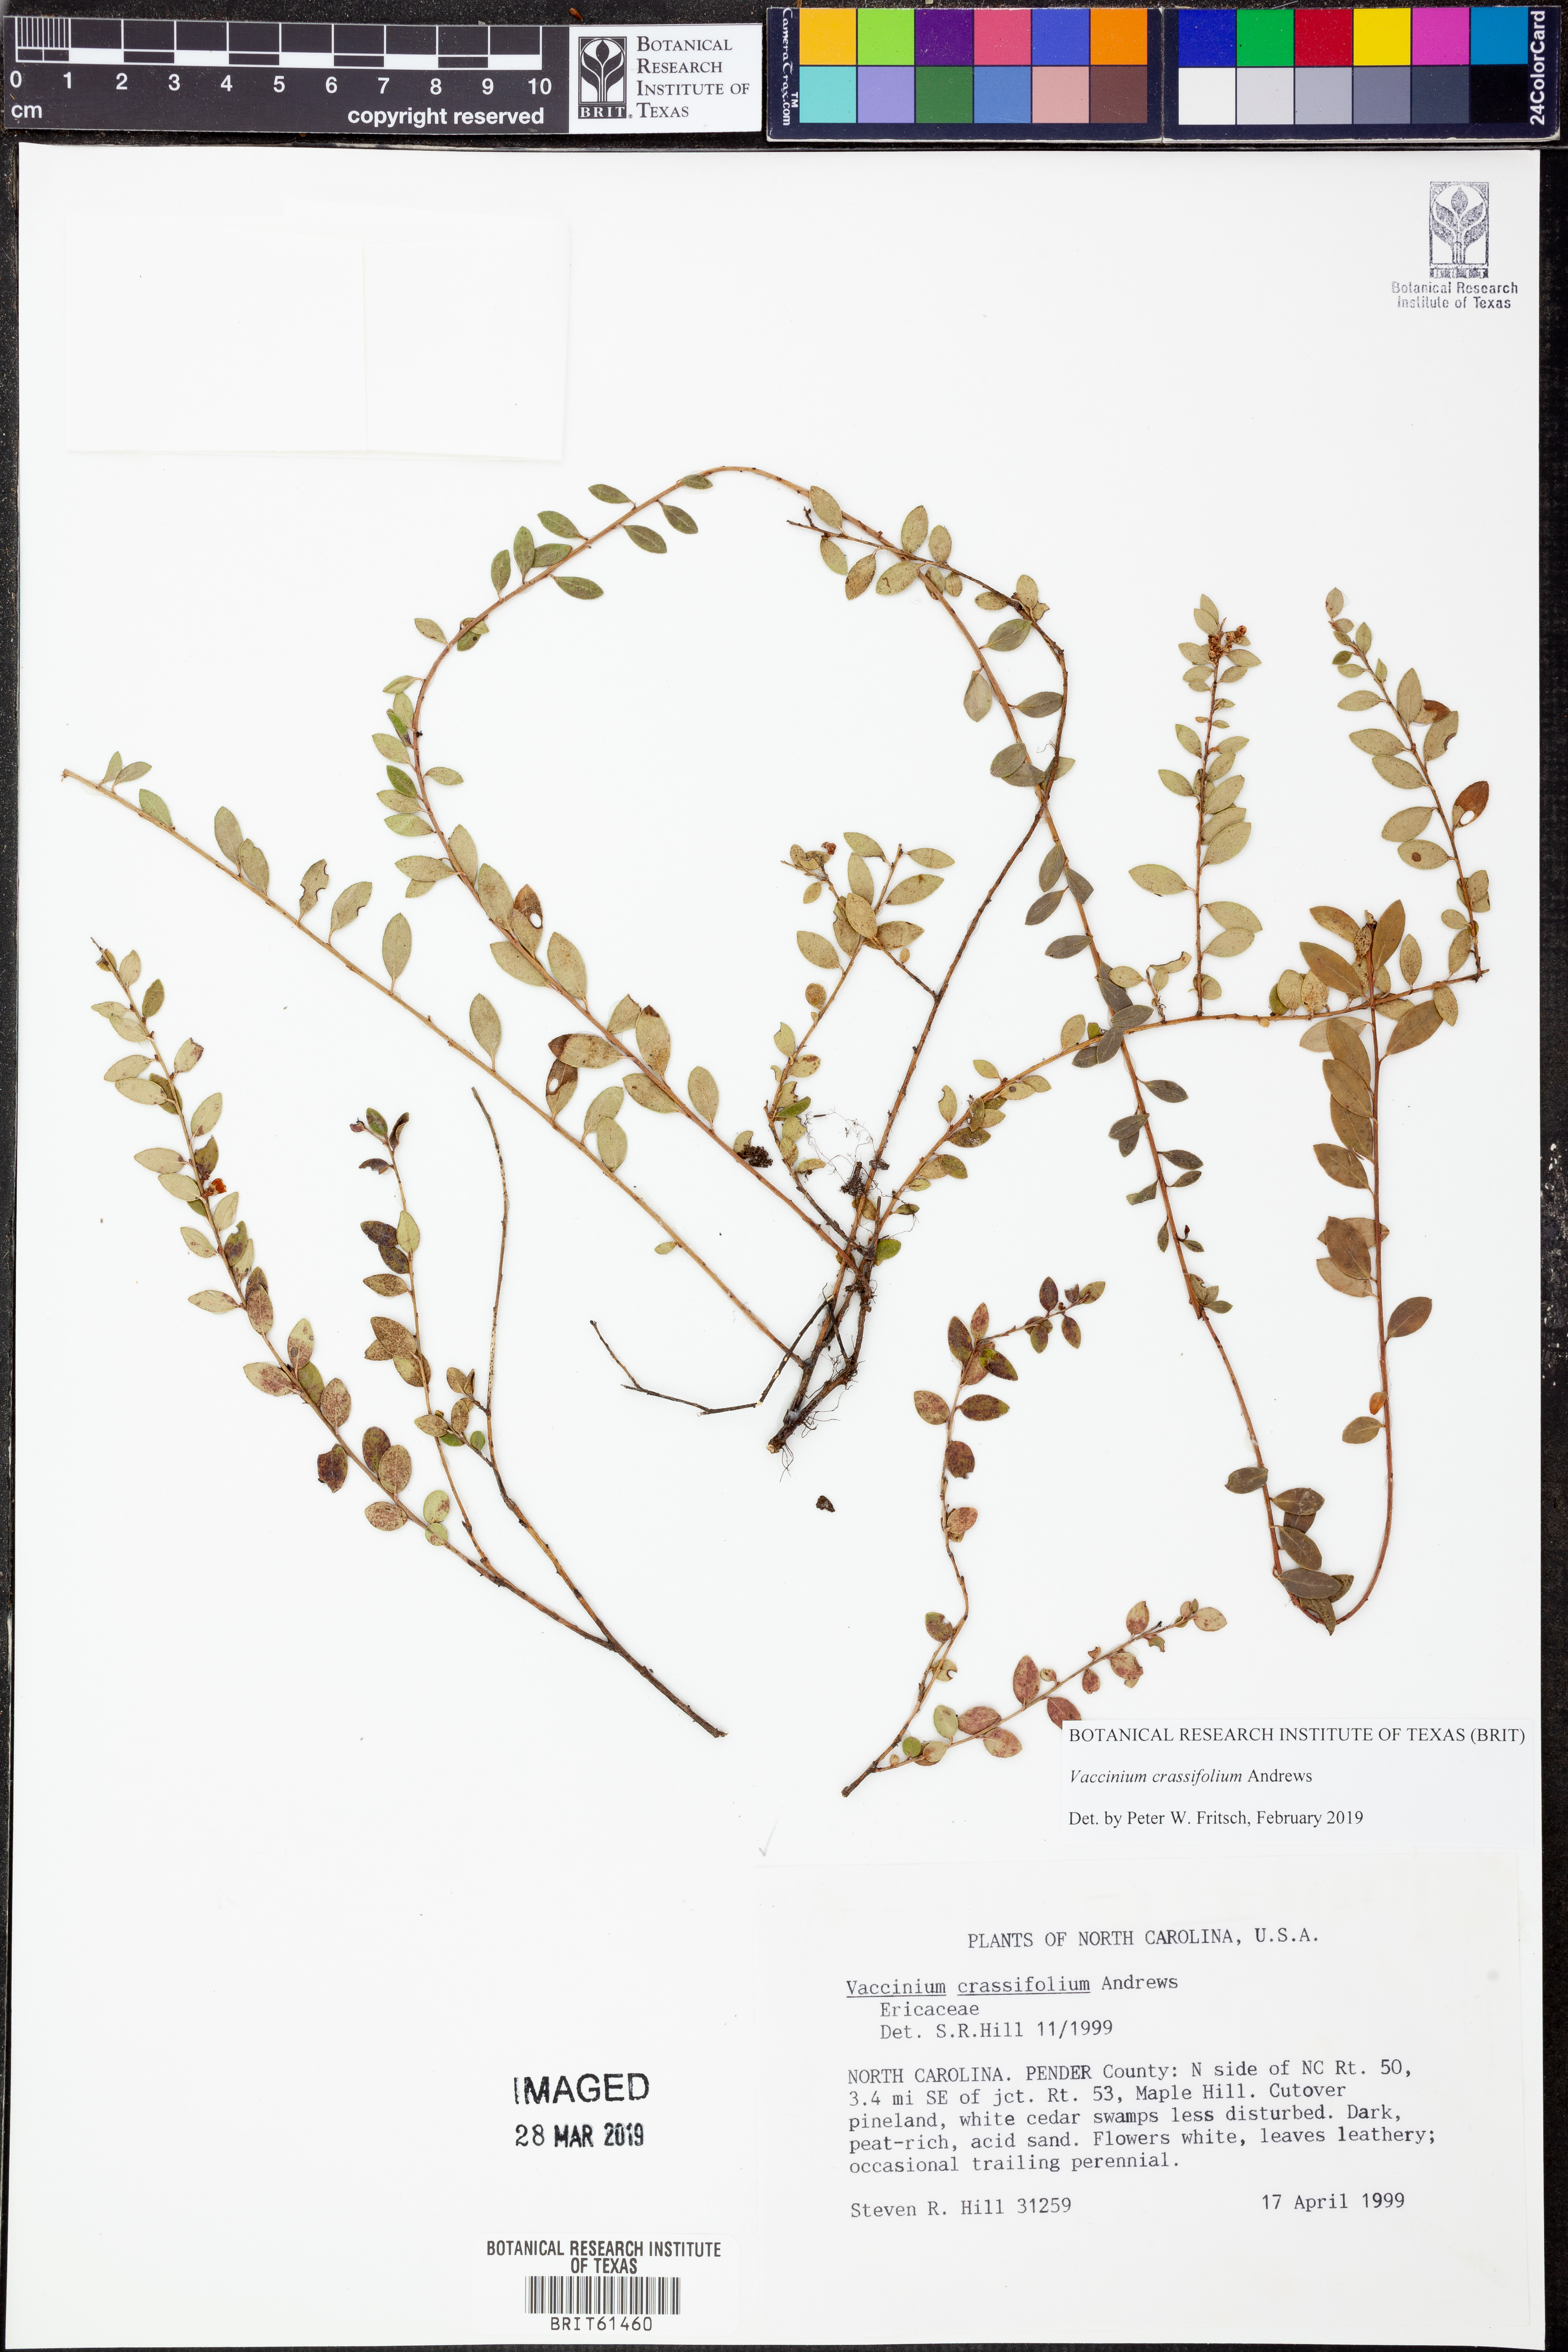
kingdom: Plantae
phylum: Tracheophyta
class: Magnoliopsida
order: Ericales
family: Ericaceae
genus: Vaccinium
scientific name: Vaccinium crassifolium
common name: Creeping blueberry
